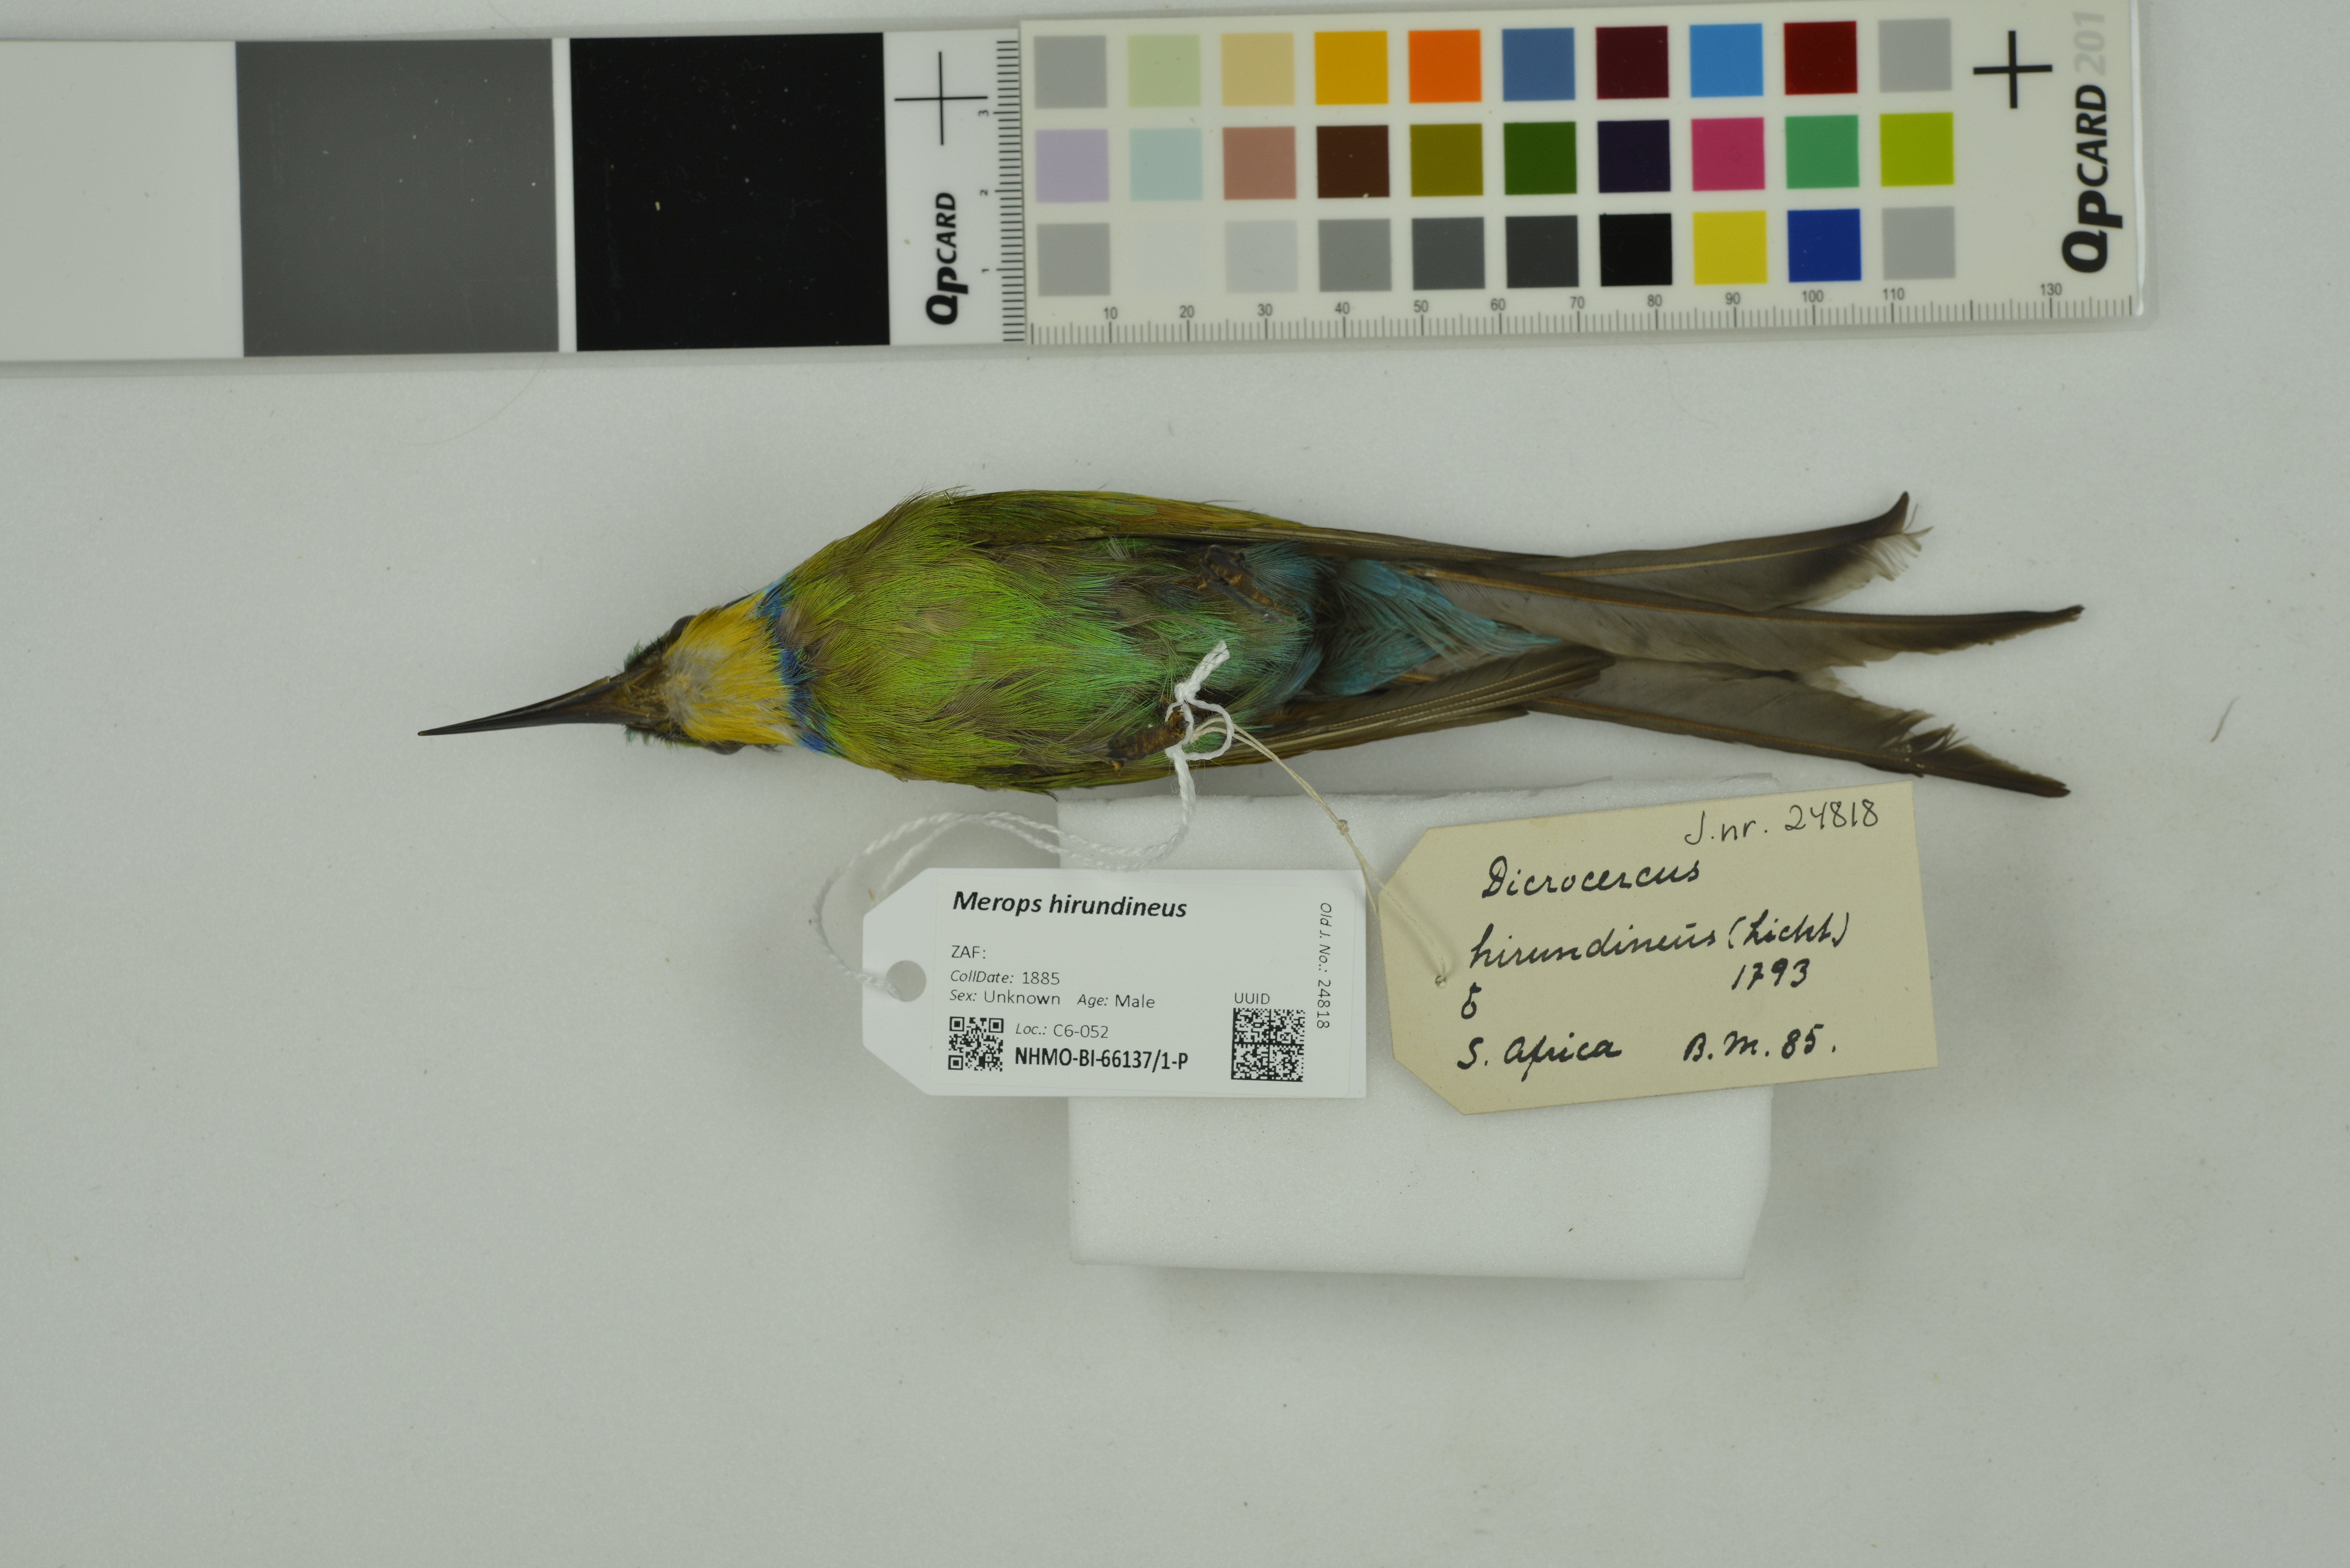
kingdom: Animalia
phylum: Chordata
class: Aves
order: Coraciiformes
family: Meropidae
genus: Merops
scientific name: Merops hirundineus
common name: Swallow-tailed bee-eater
